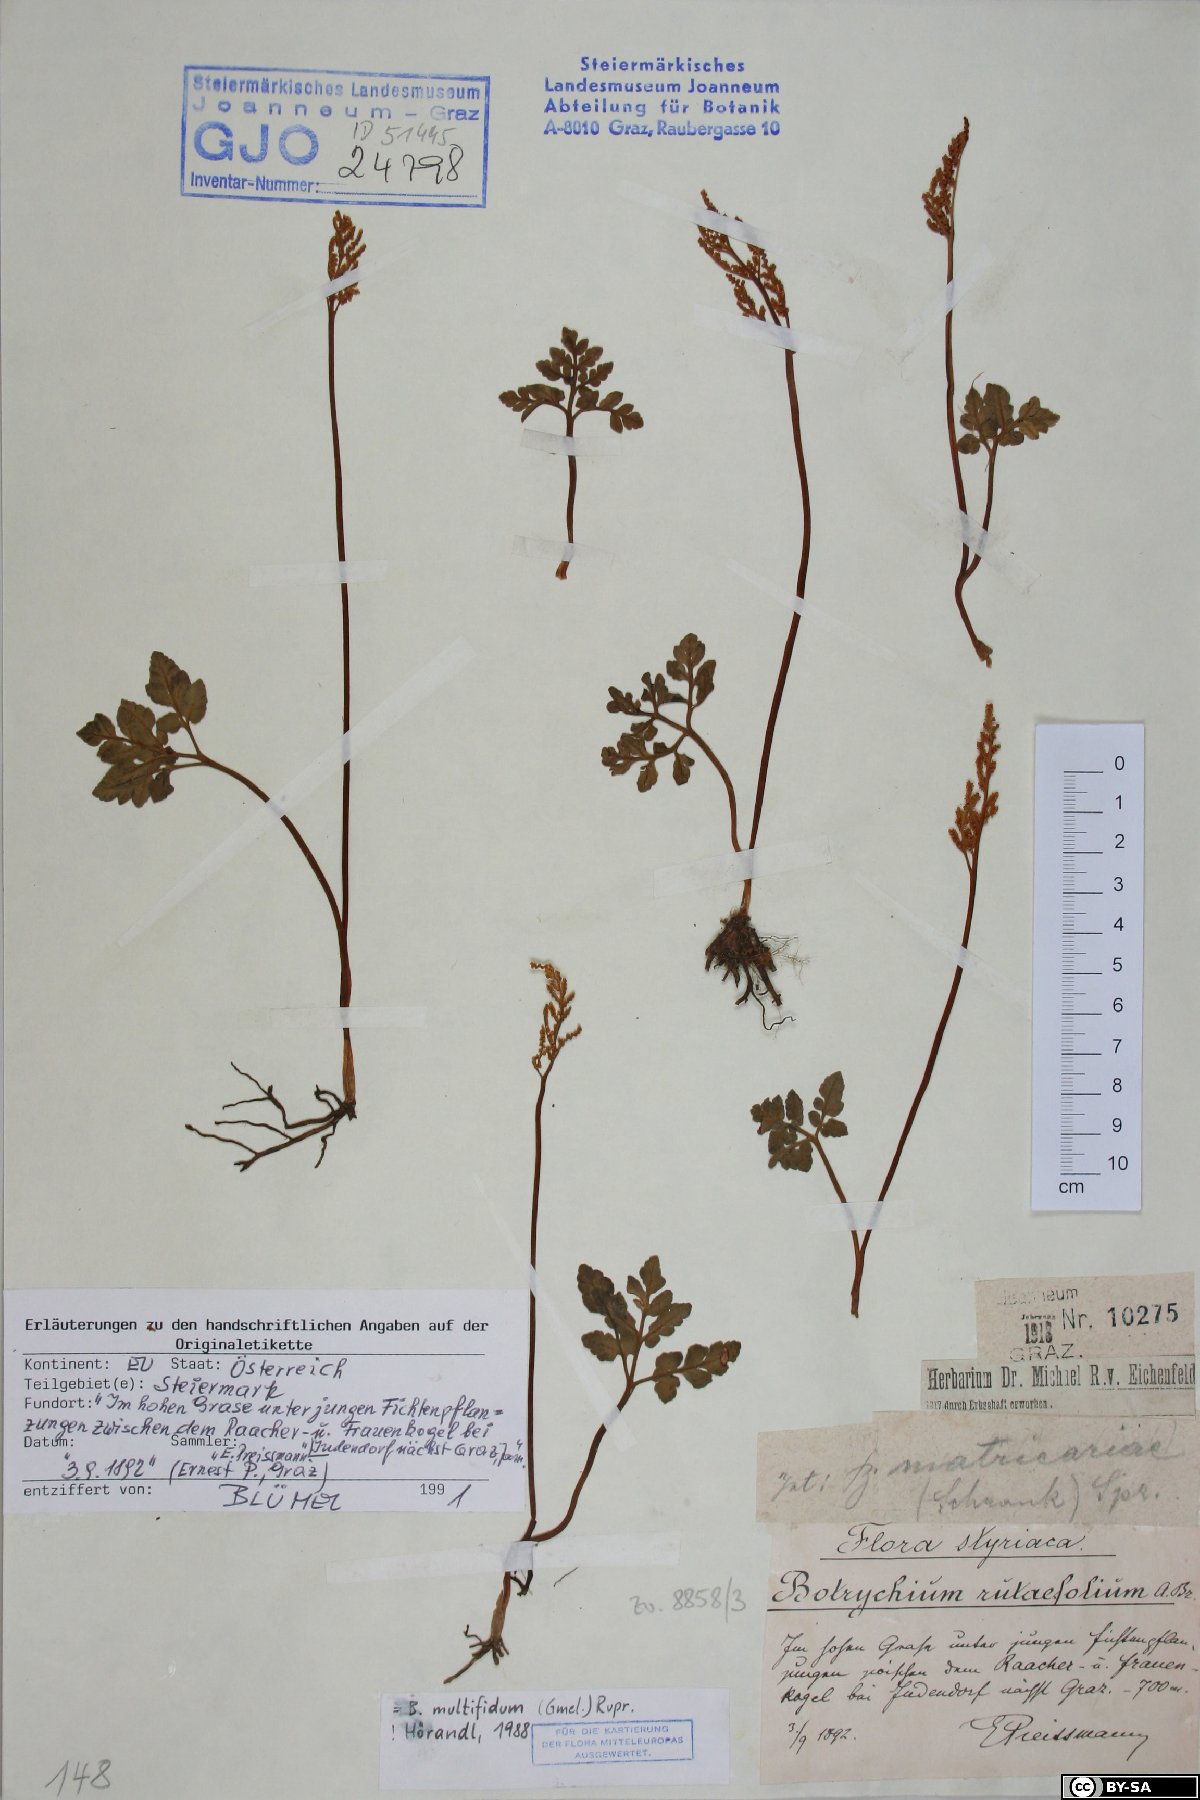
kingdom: Plantae
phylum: Tracheophyta
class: Polypodiopsida
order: Ophioglossales
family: Ophioglossaceae
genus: Sceptridium
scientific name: Sceptridium multifidum
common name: Leathery grape fern
